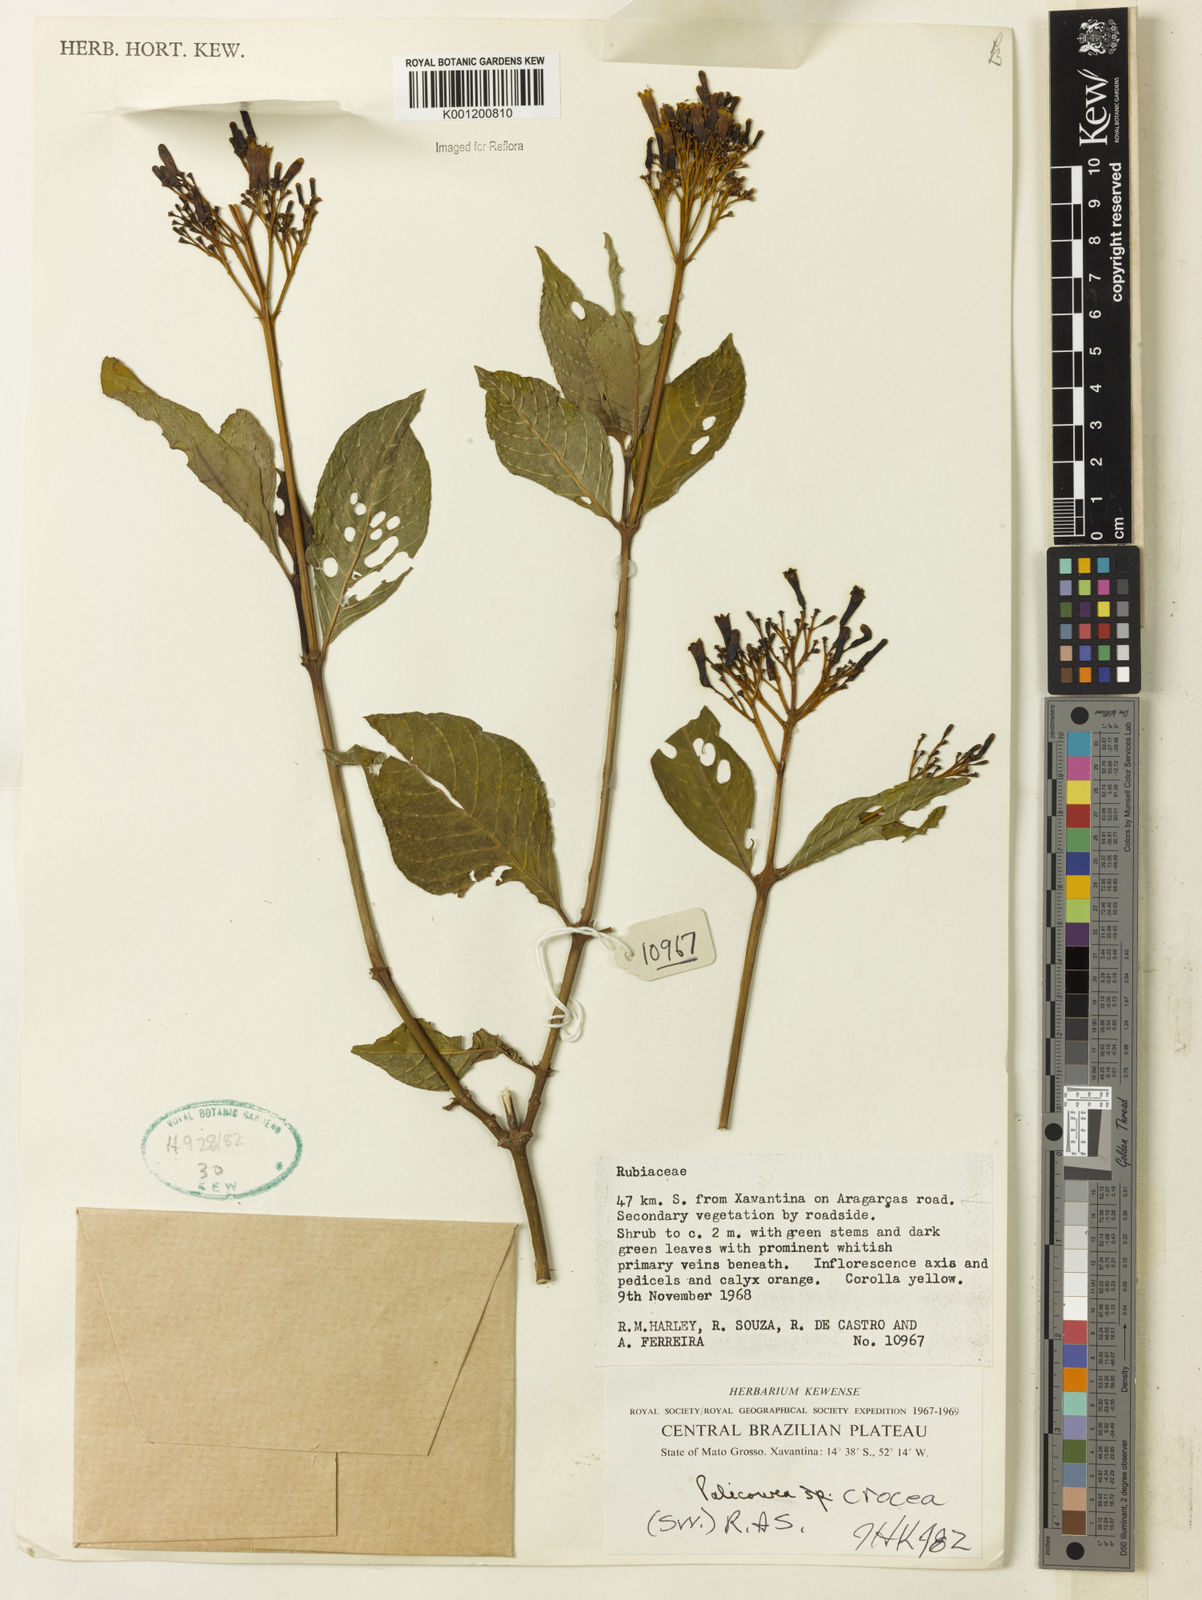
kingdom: Plantae
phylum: Tracheophyta
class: Magnoliopsida
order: Gentianales
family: Rubiaceae
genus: Palicourea
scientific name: Palicourea crocea
